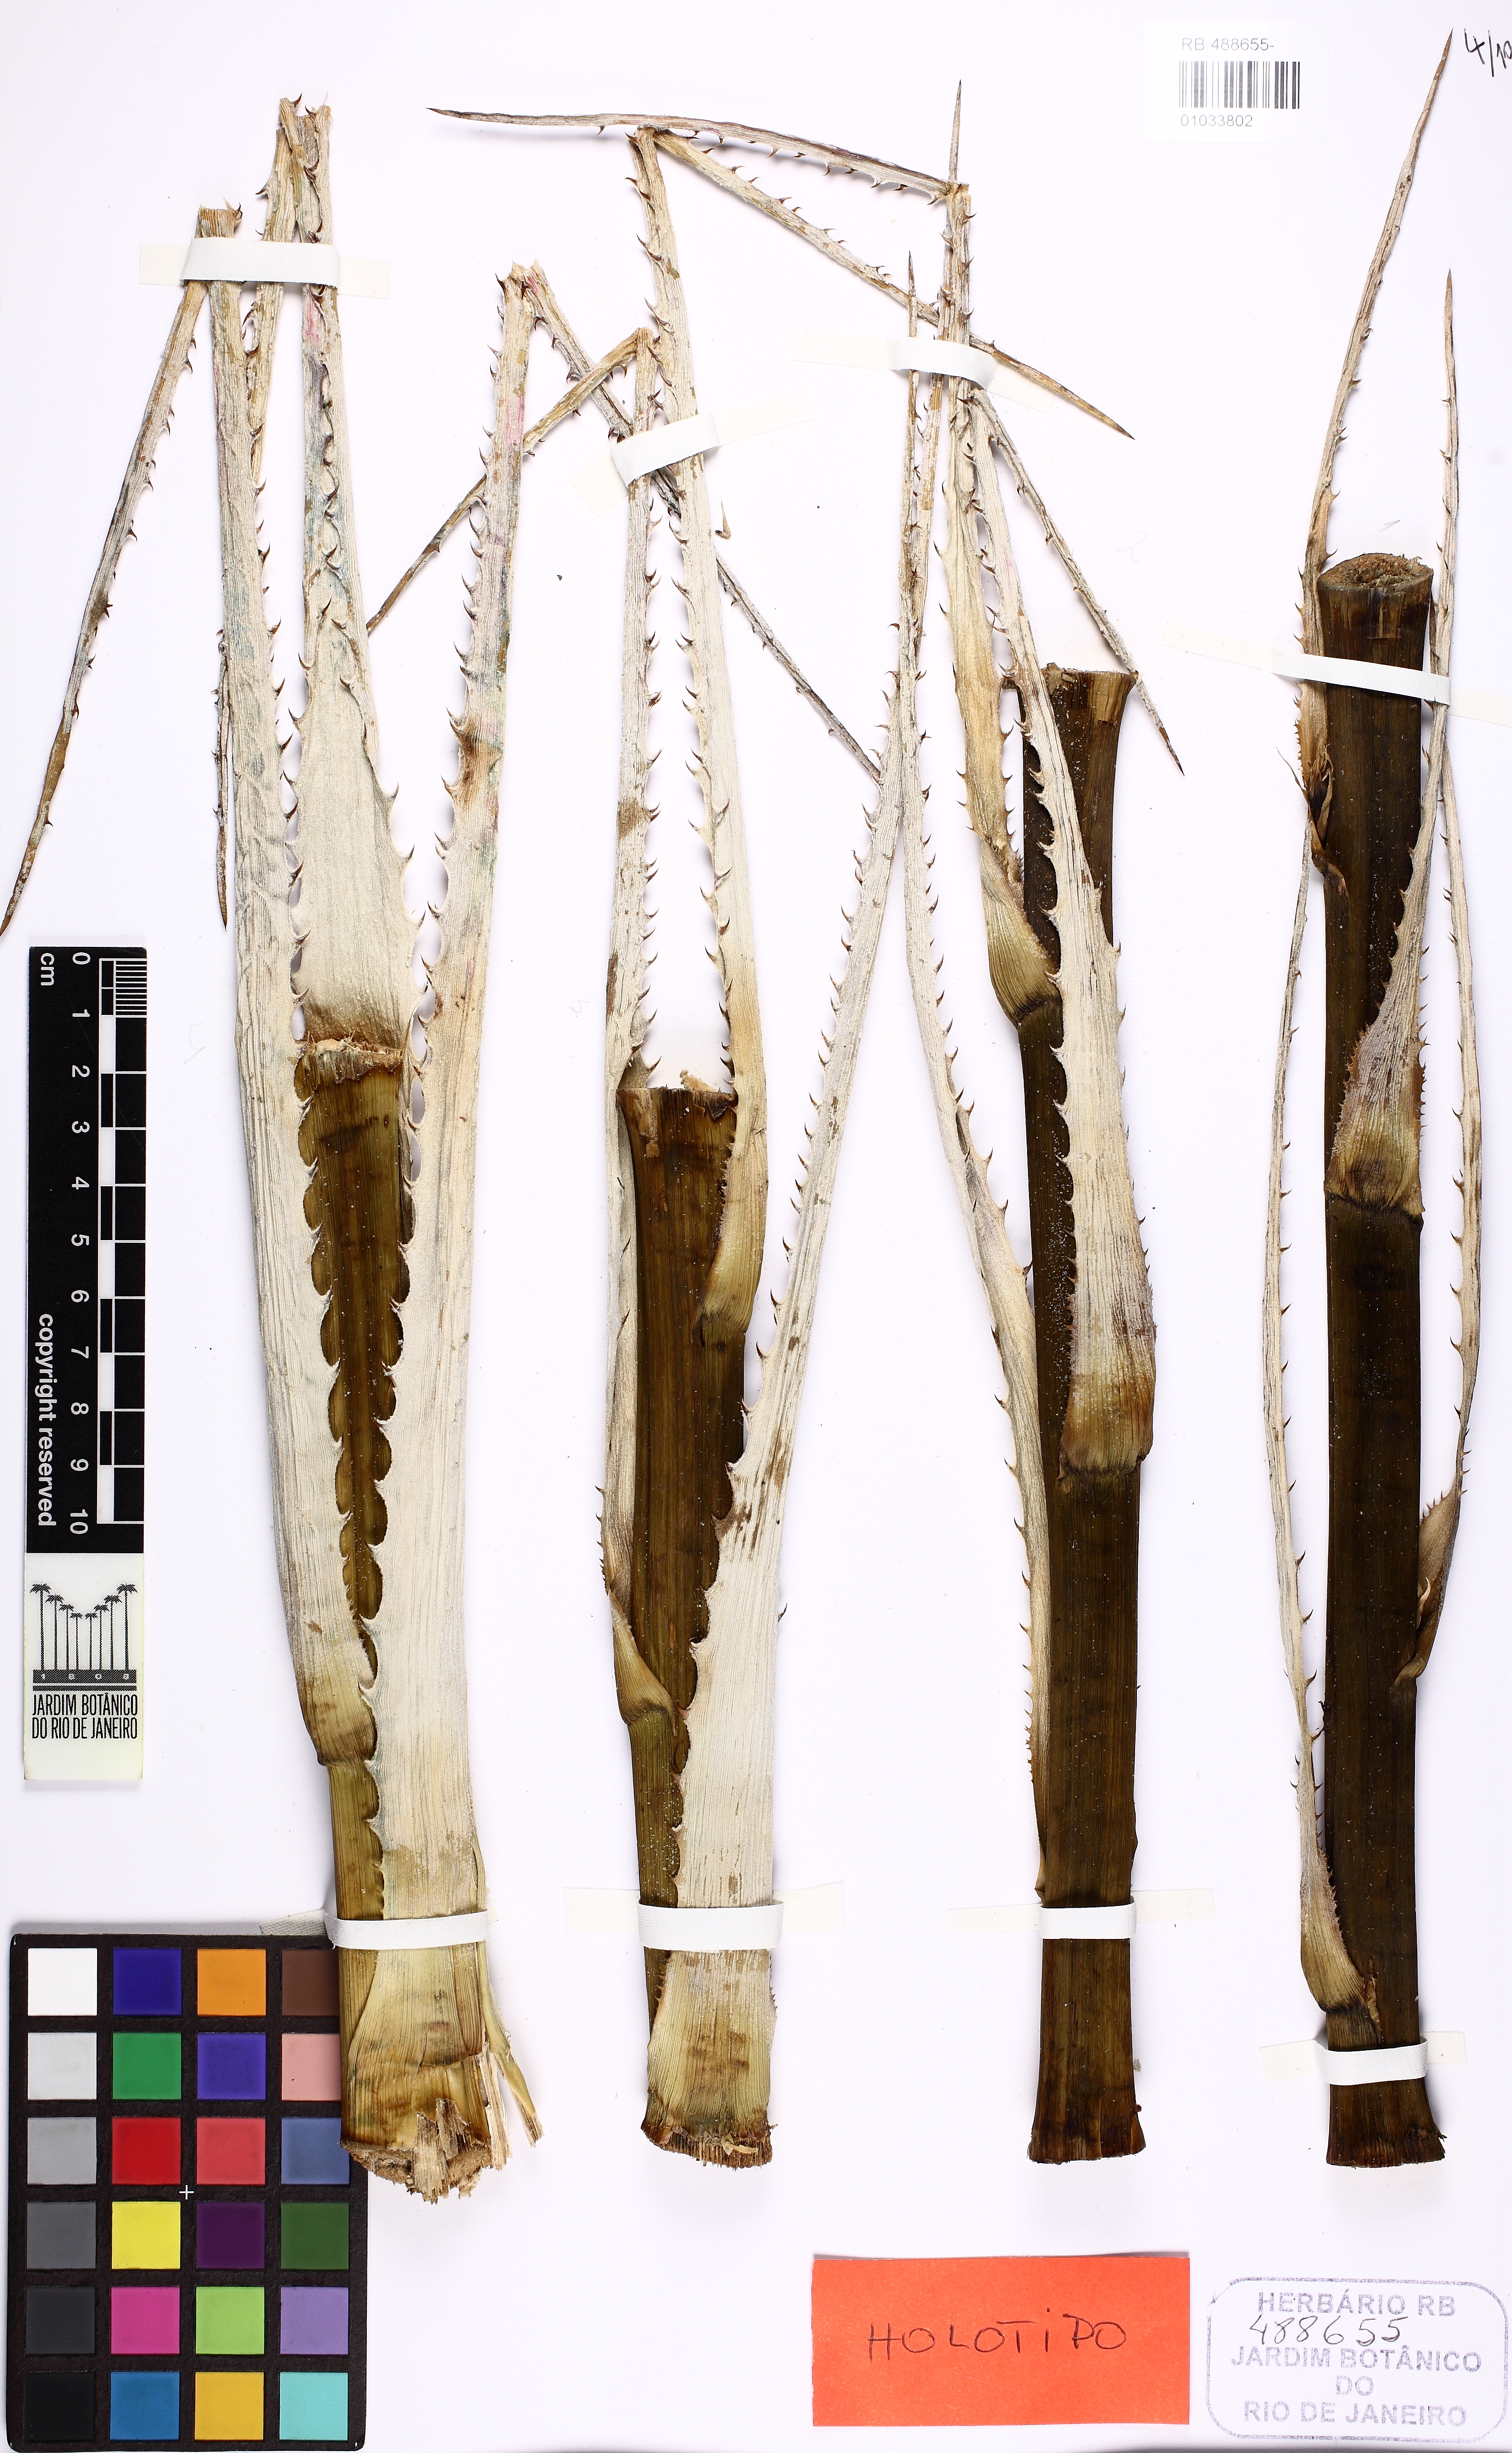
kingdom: Plantae
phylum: Tracheophyta
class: Liliopsida
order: Poales
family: Bromeliaceae
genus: Encholirium
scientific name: Encholirium fragae
